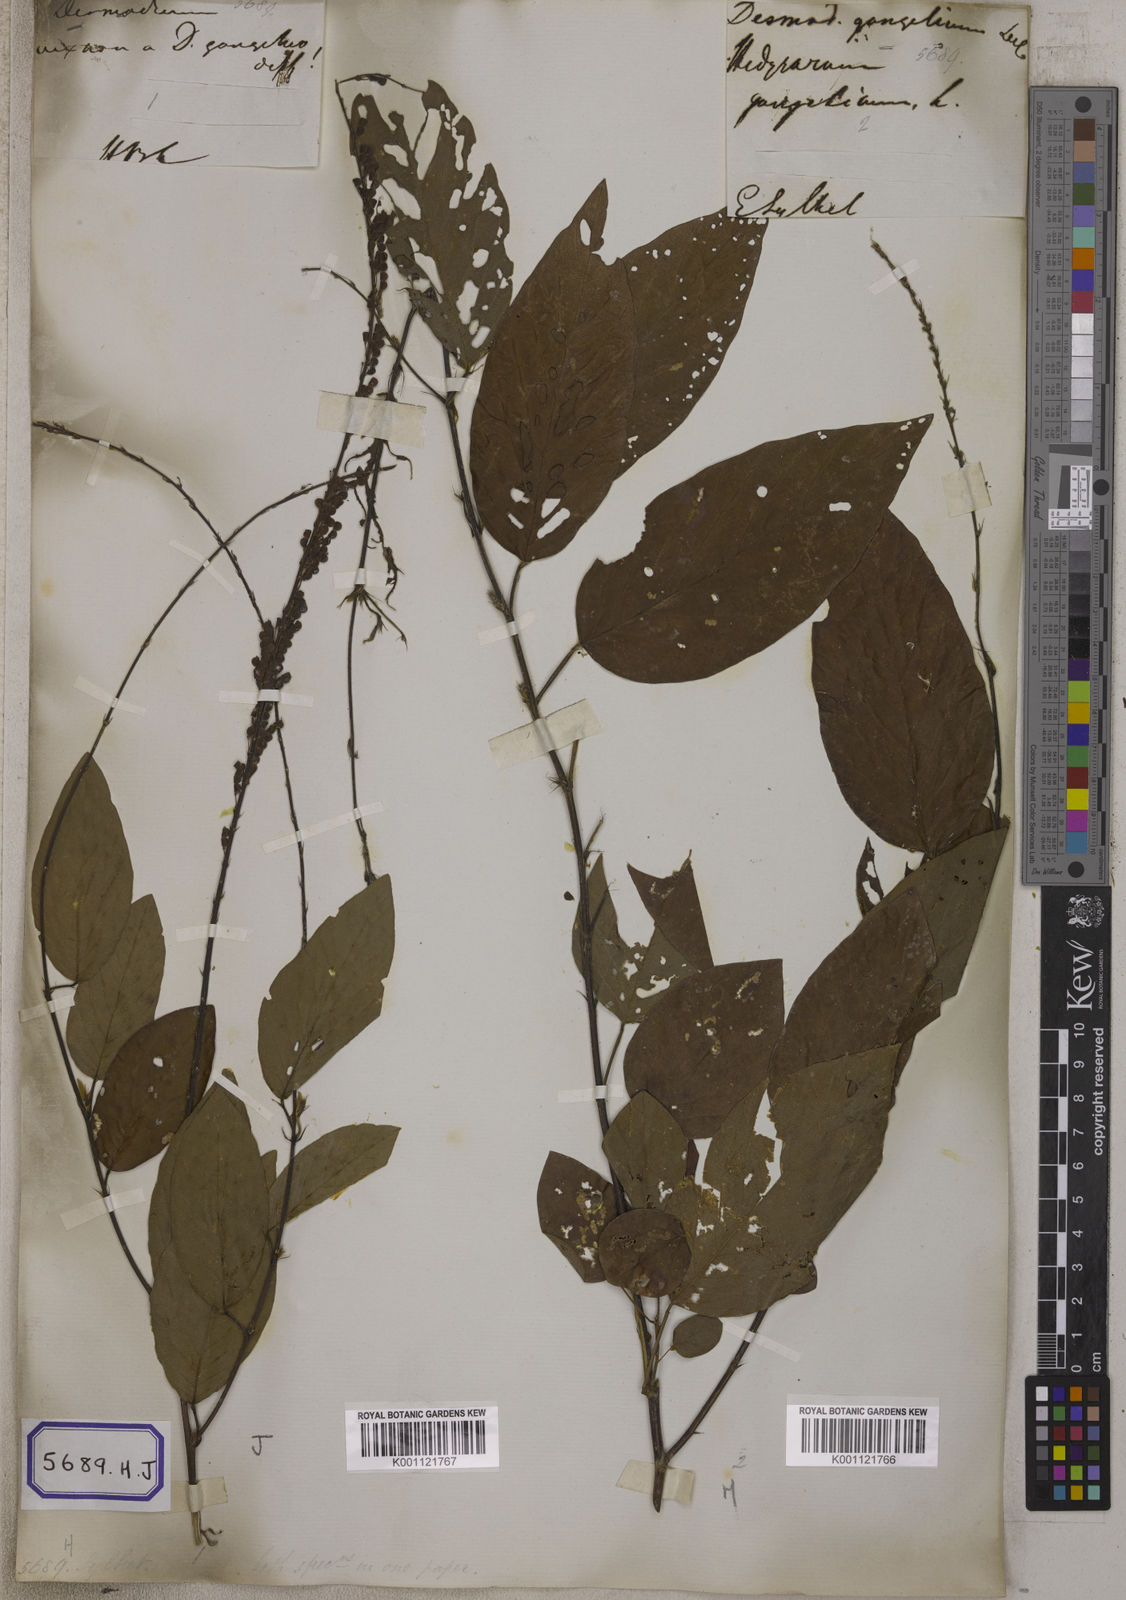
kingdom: Plantae
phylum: Tracheophyta
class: Magnoliopsida
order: Fabales
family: Fabaceae
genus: Pleurolobus
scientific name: Pleurolobus gangeticus
